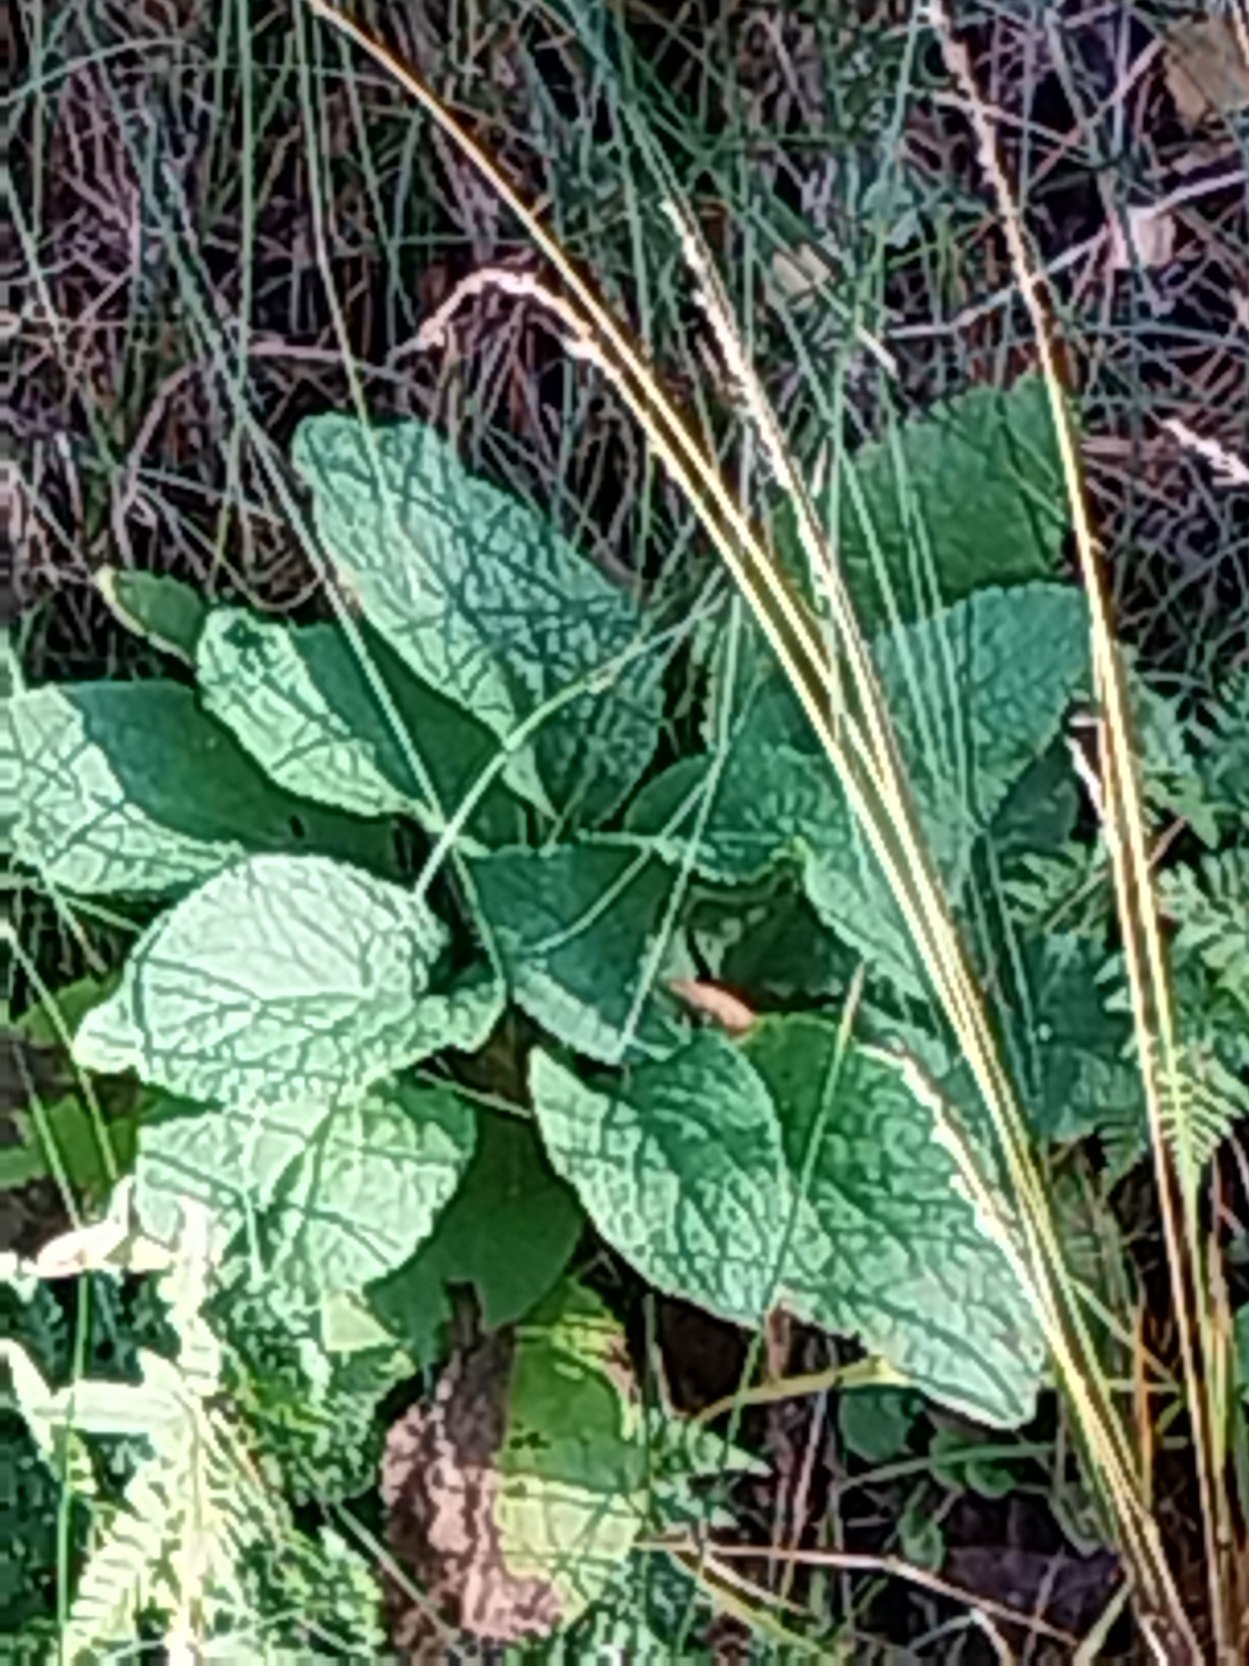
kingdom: Plantae
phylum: Tracheophyta
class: Magnoliopsida
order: Lamiales
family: Plantaginaceae
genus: Digitalis
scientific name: Digitalis purpurea
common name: Almindelig fingerbøl
